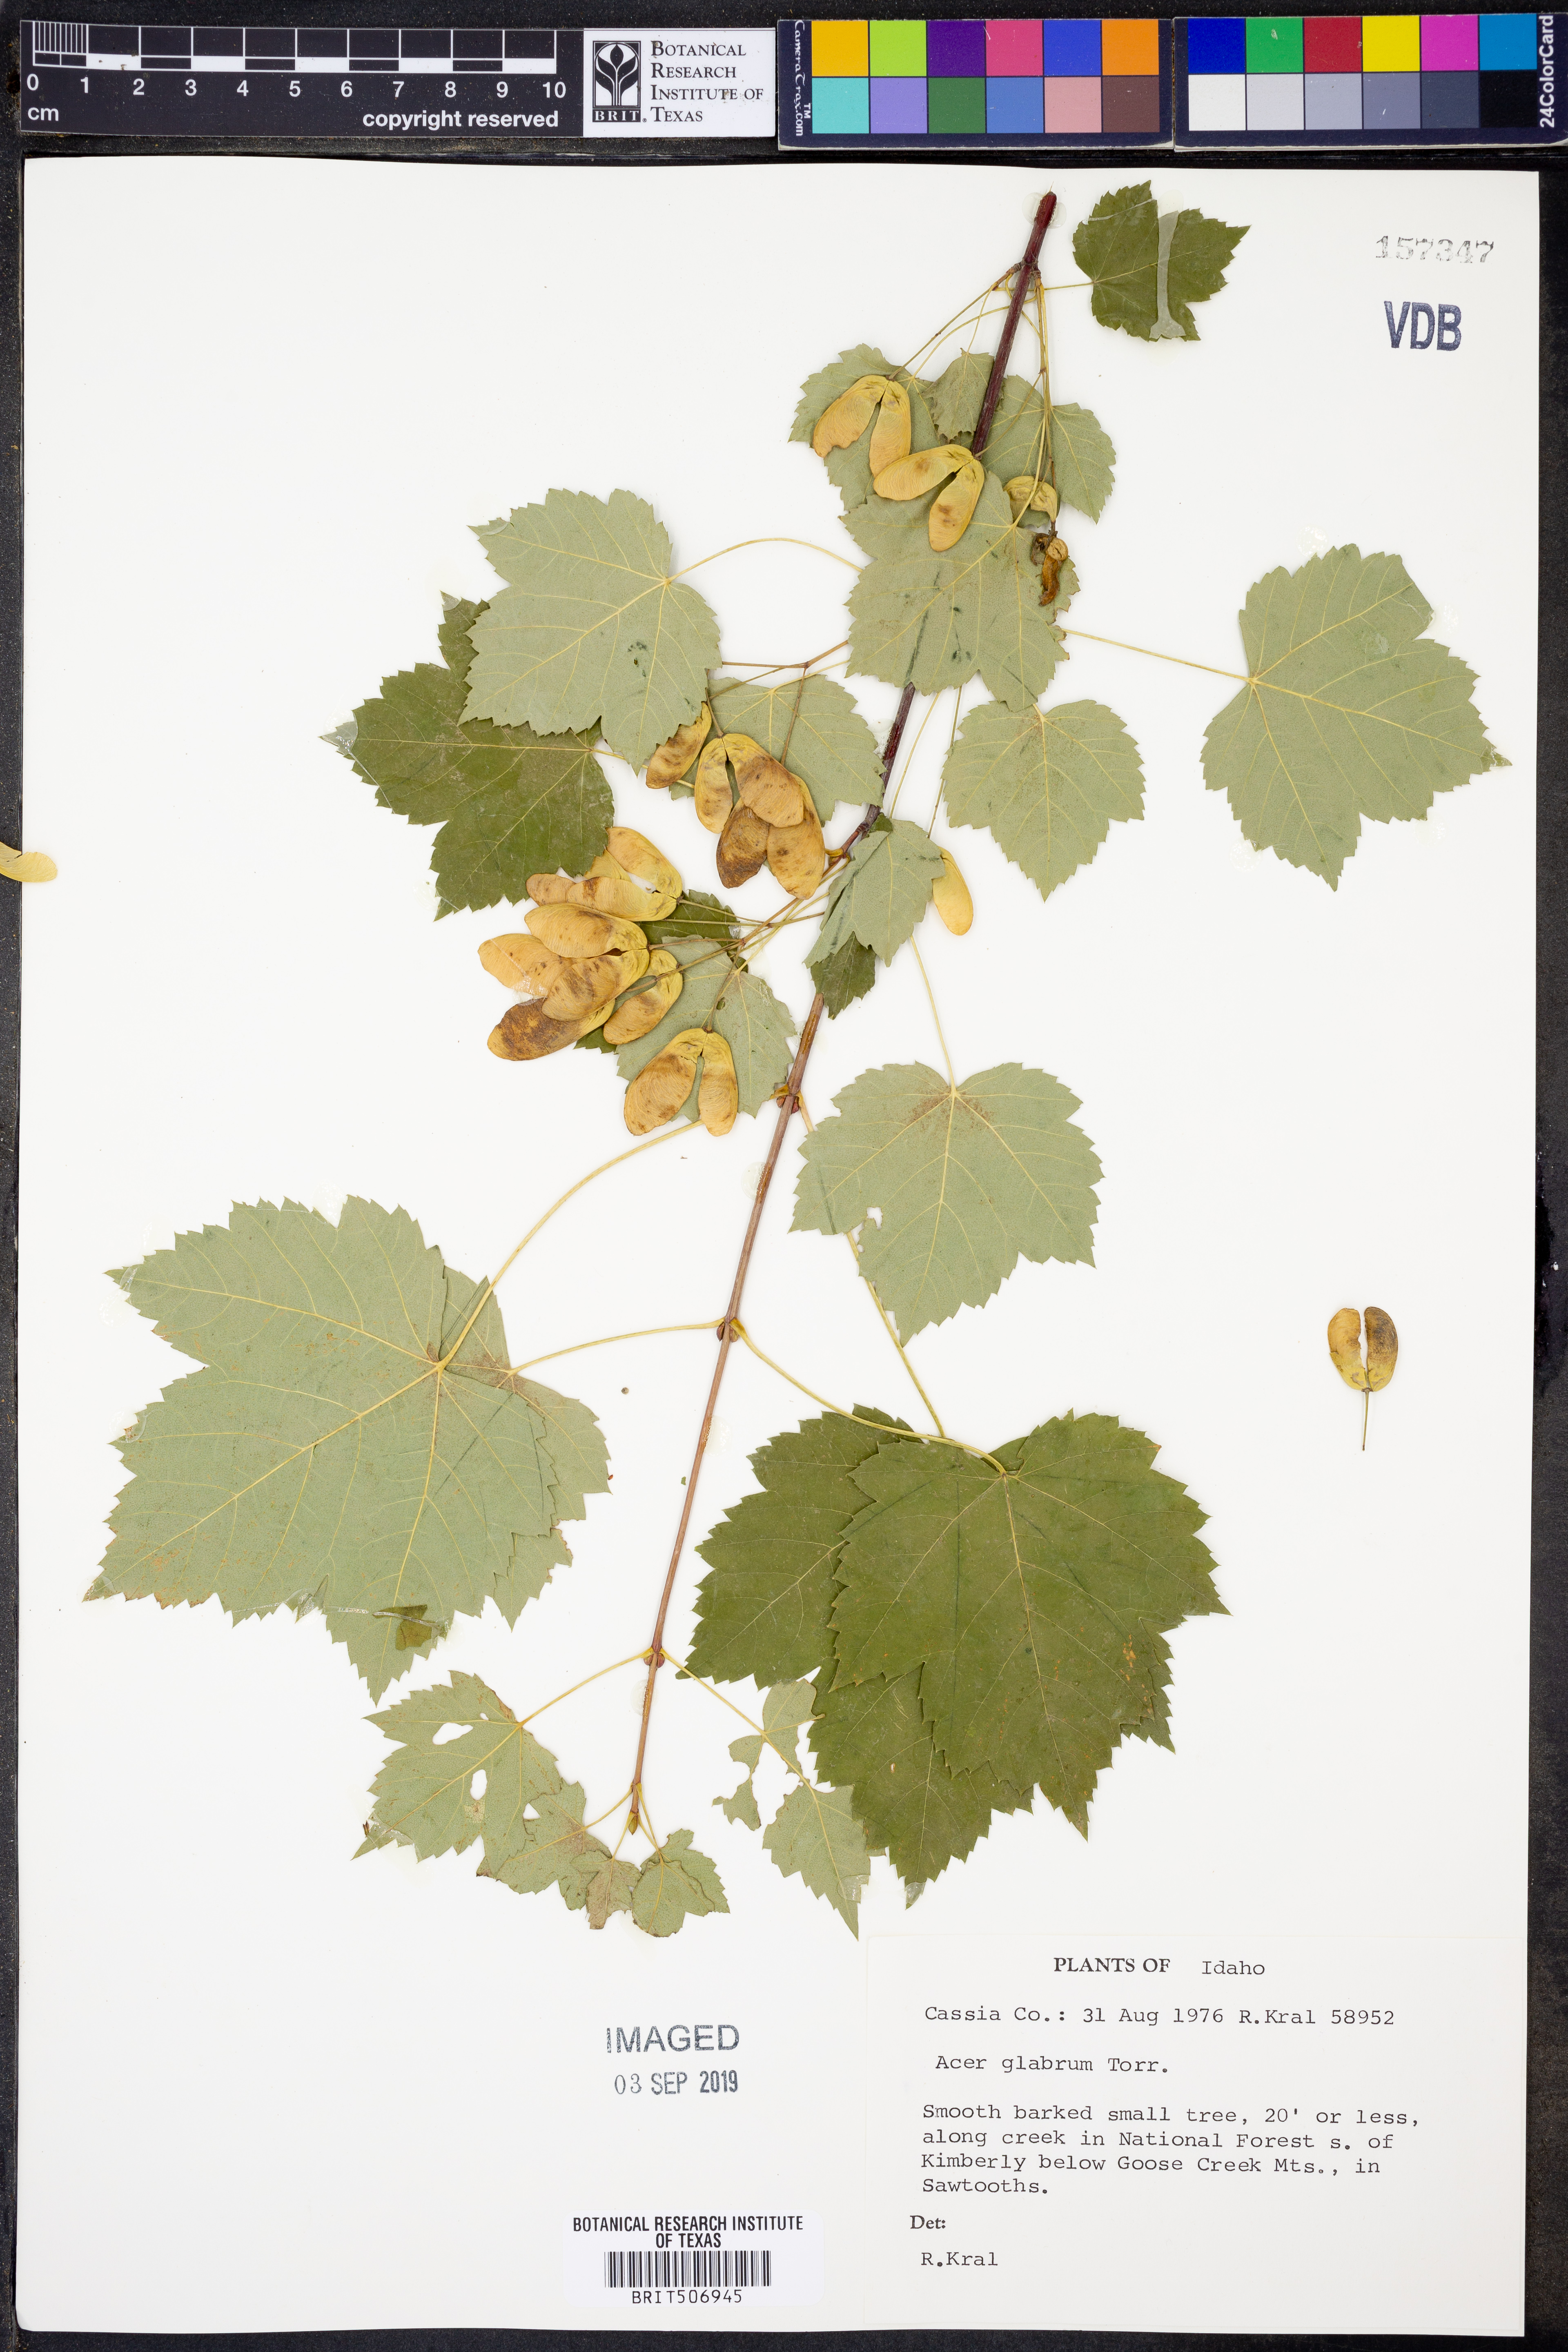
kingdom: Plantae
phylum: Tracheophyta
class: Magnoliopsida
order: Sapindales
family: Sapindaceae
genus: Acer
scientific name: Acer glabrum
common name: Rocky mountain maple
